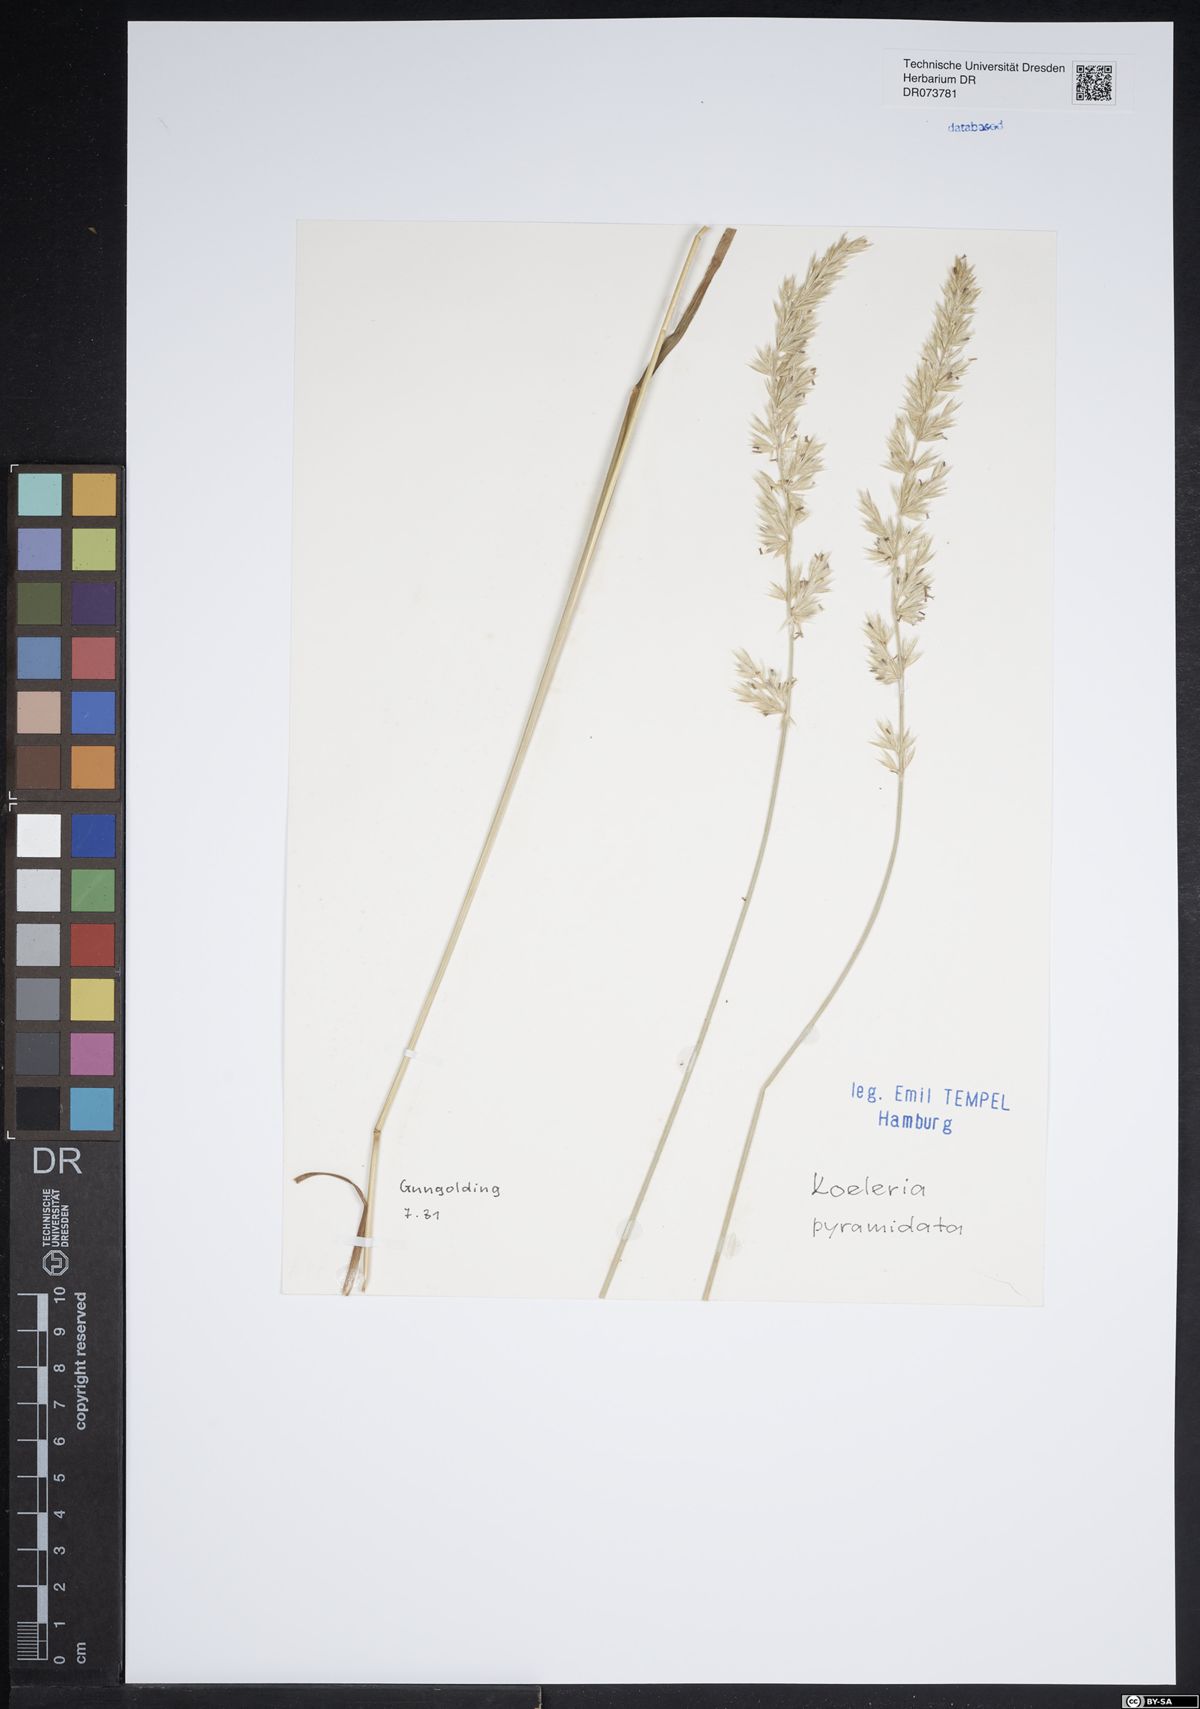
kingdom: Plantae
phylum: Tracheophyta
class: Liliopsida
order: Poales
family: Poaceae
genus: Koeleria
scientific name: Koeleria pyramidata
